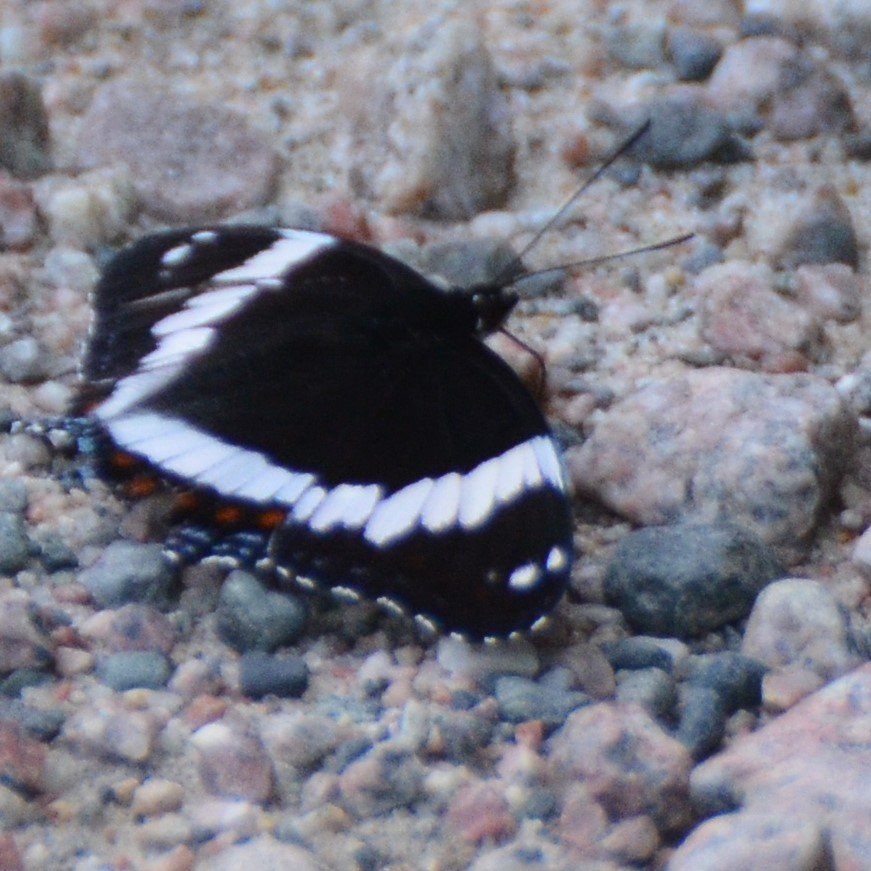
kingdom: Animalia
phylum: Arthropoda
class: Insecta
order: Lepidoptera
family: Nymphalidae
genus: Limenitis
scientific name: Limenitis arthemis
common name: Red-spotted Admiral
